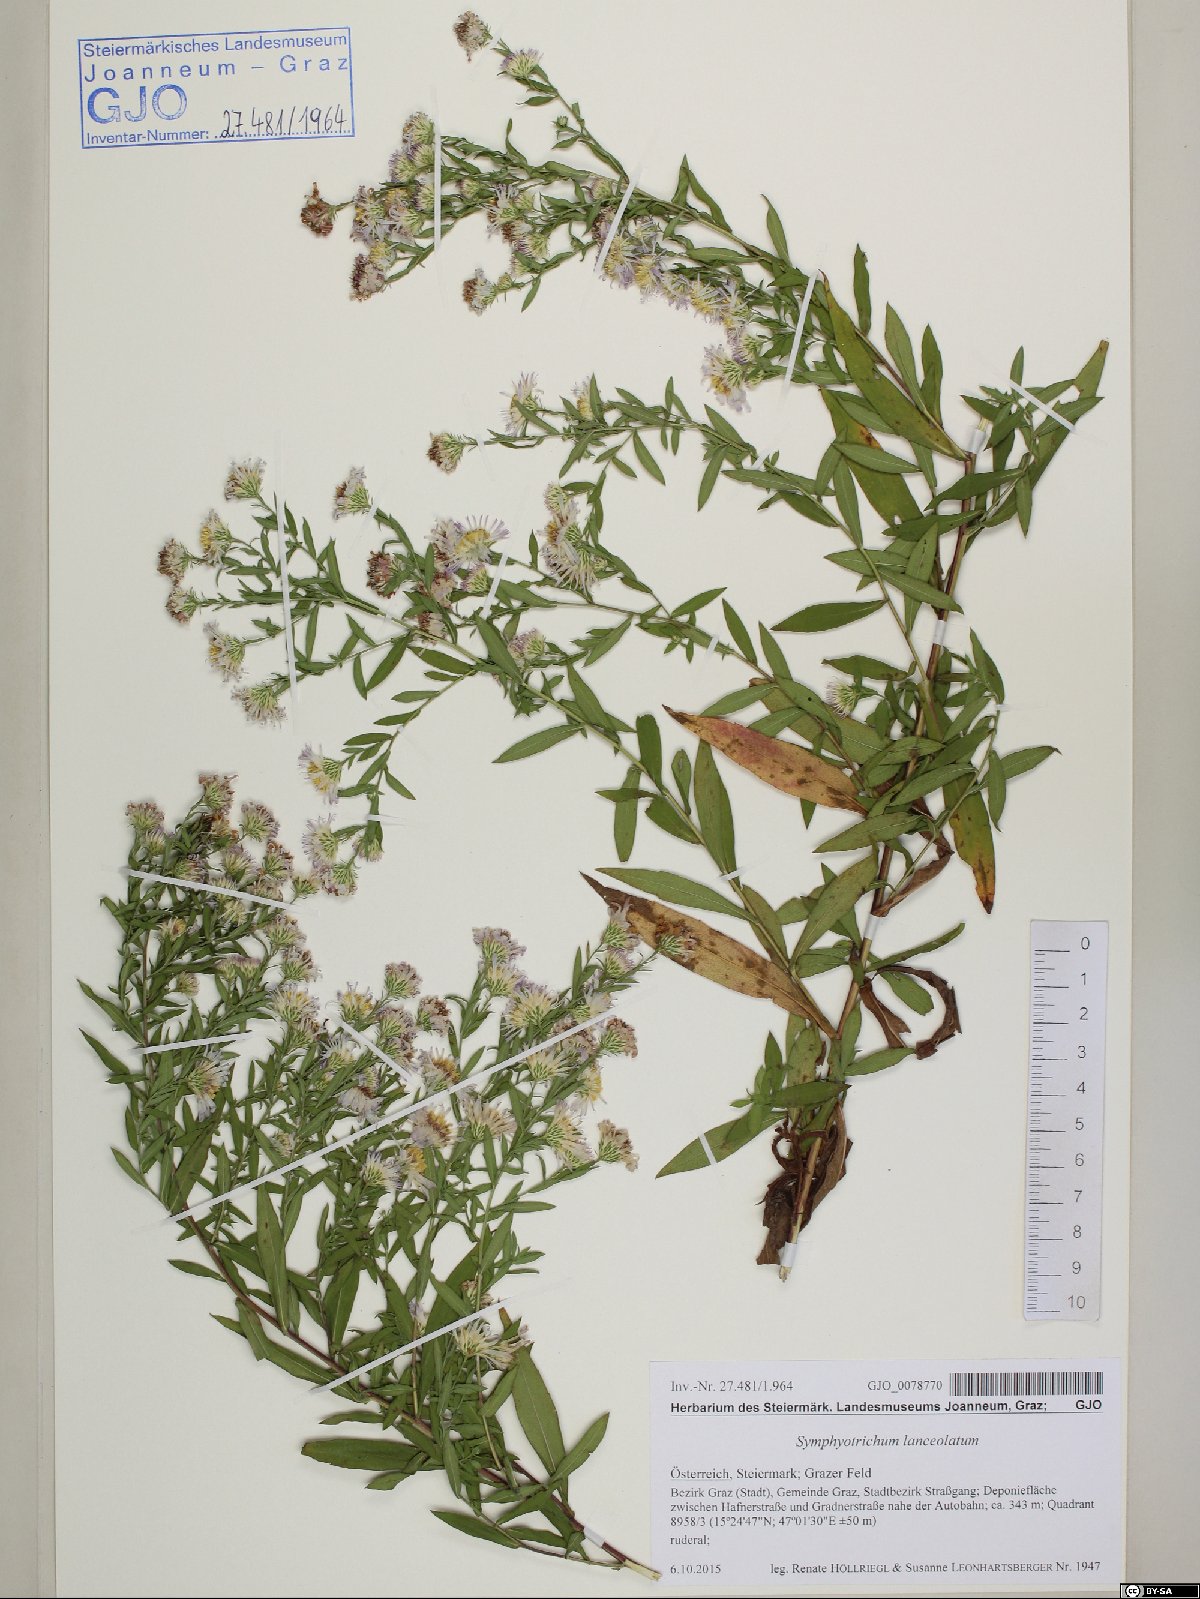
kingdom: Plantae
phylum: Tracheophyta
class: Magnoliopsida
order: Asterales
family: Asteraceae
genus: Symphyotrichum
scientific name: Symphyotrichum lanceolatum
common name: Panicled aster
